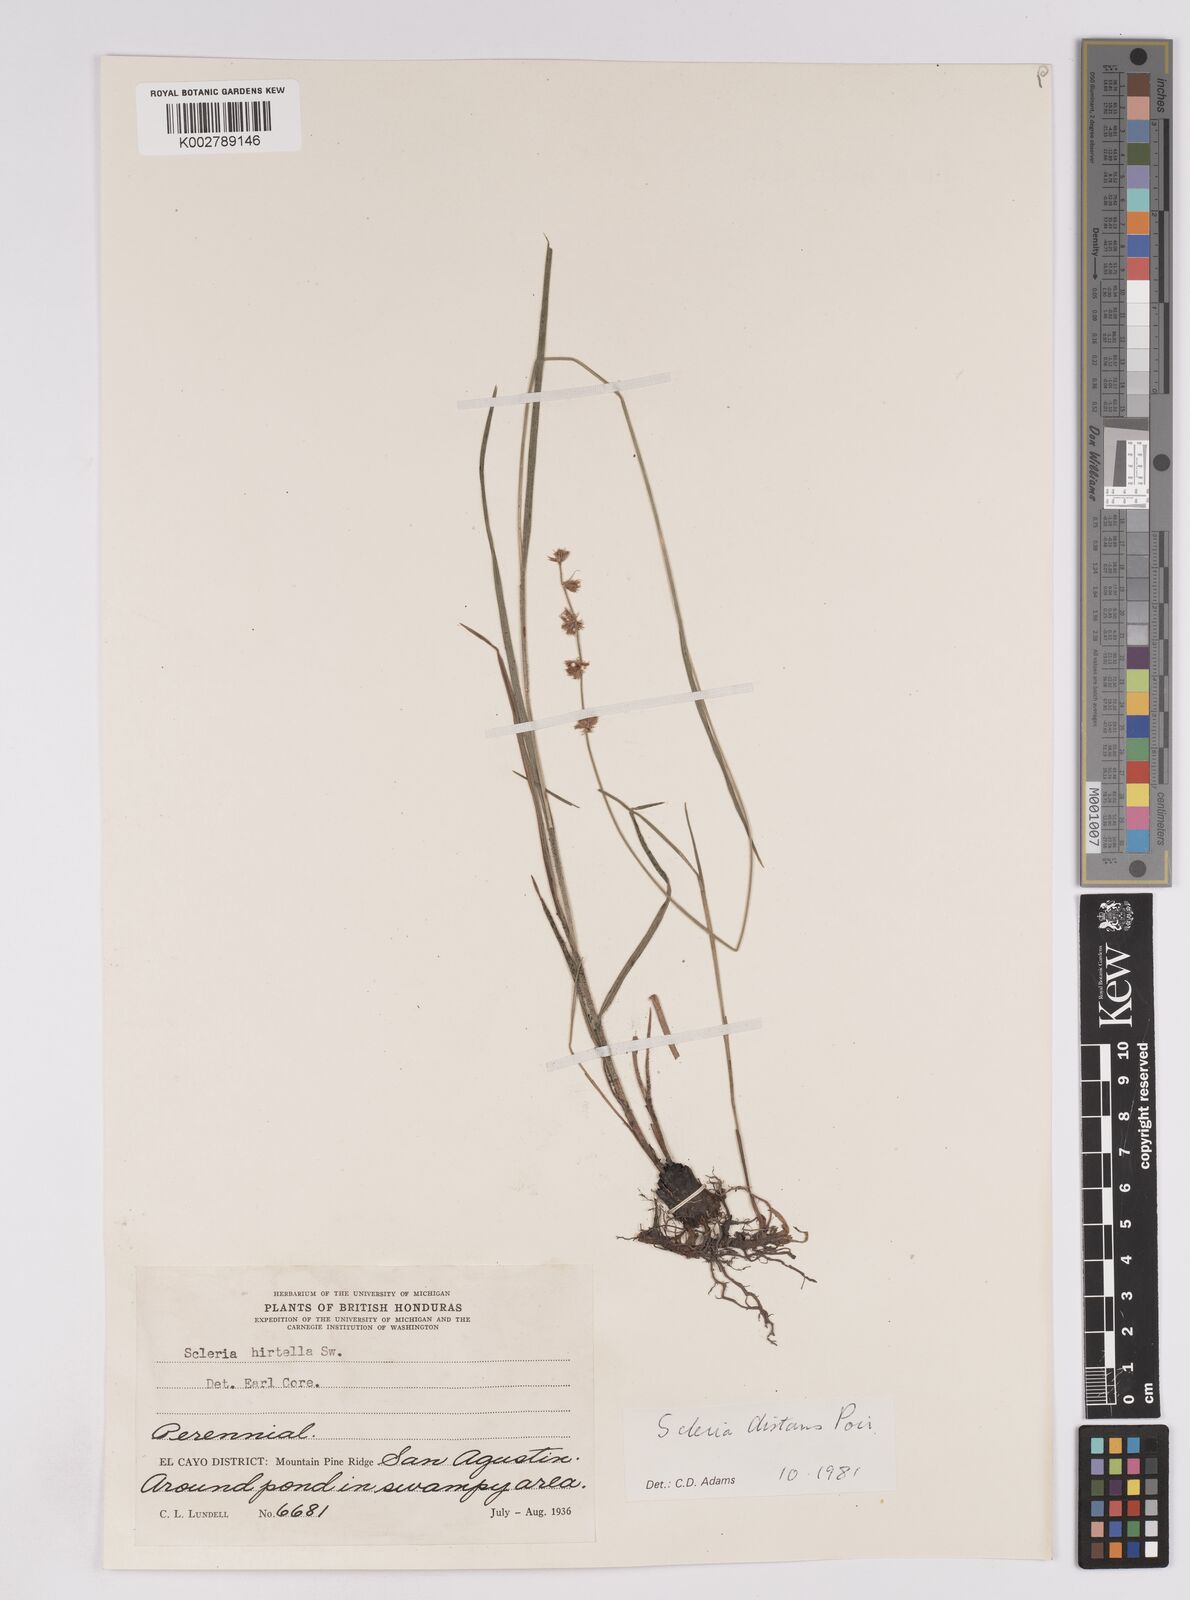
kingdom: Plantae
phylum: Tracheophyta
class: Liliopsida
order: Poales
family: Cyperaceae
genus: Scleria
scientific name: Scleria distans
